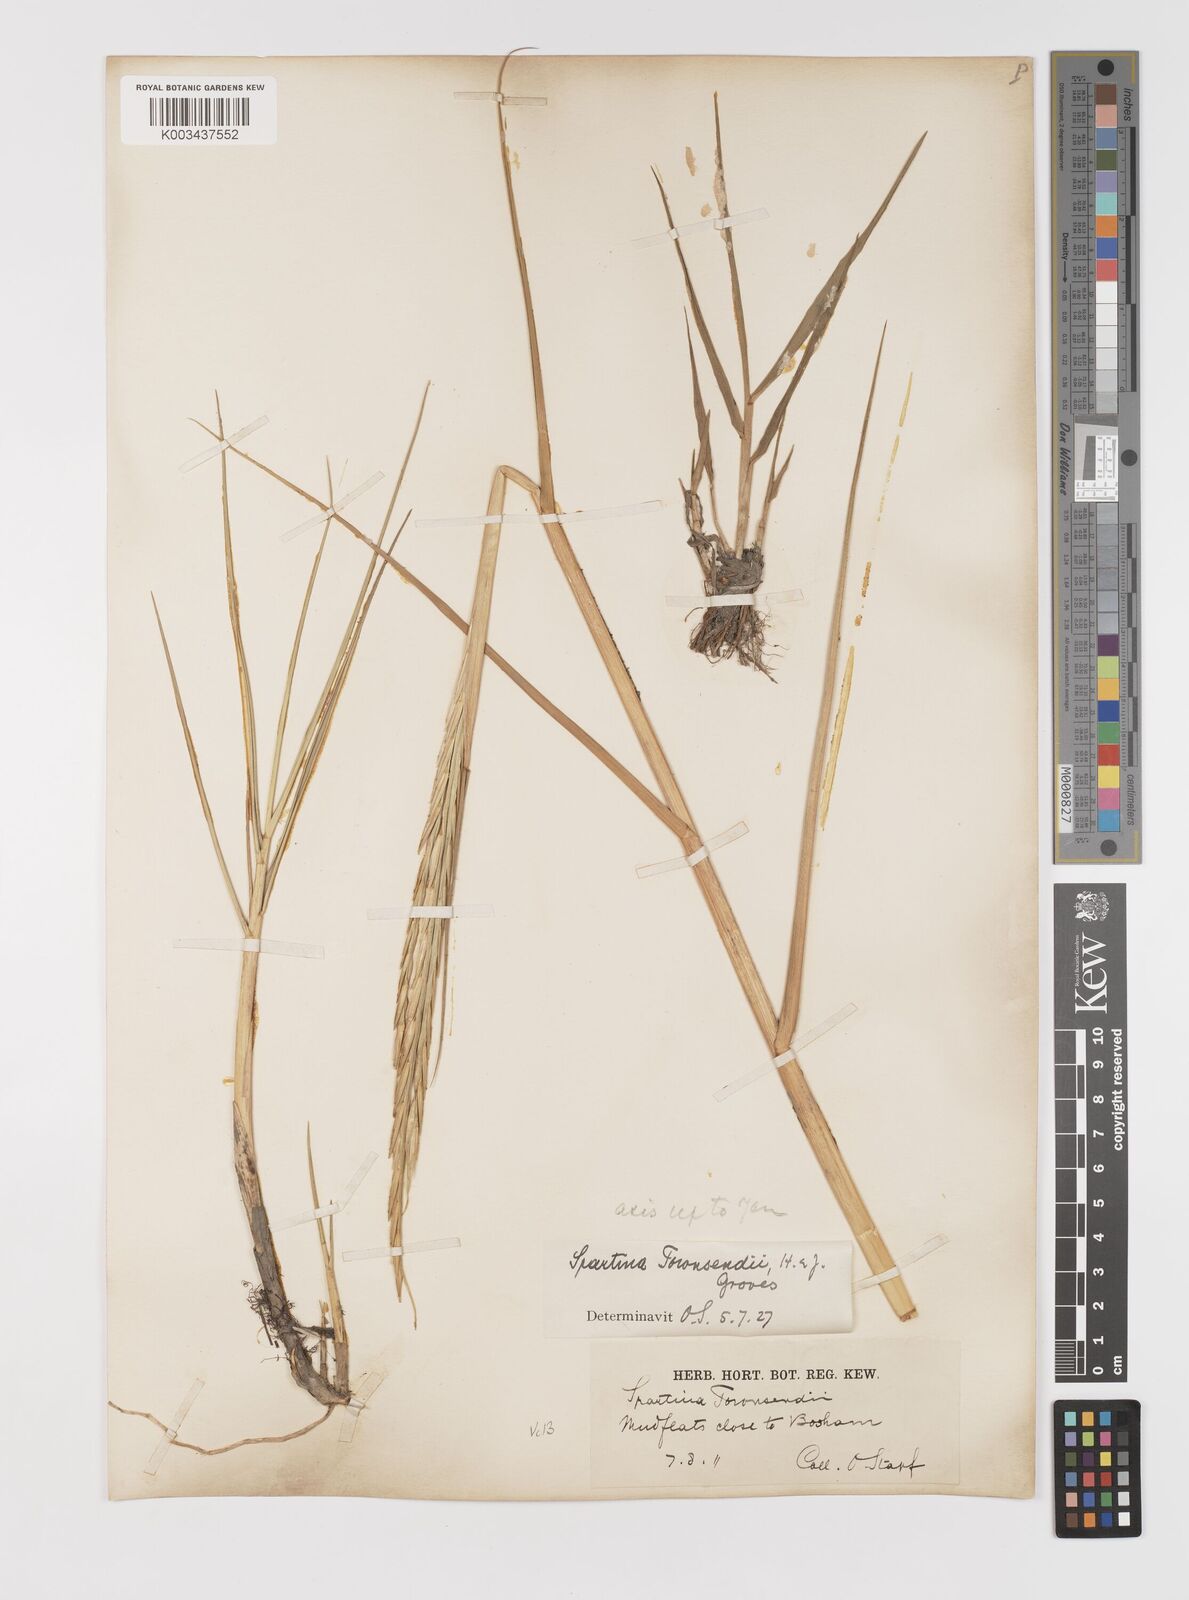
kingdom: Plantae
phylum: Tracheophyta
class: Liliopsida
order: Poales
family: Poaceae
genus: Sporobolus
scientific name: Sporobolus anglicus
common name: English cordgrass
